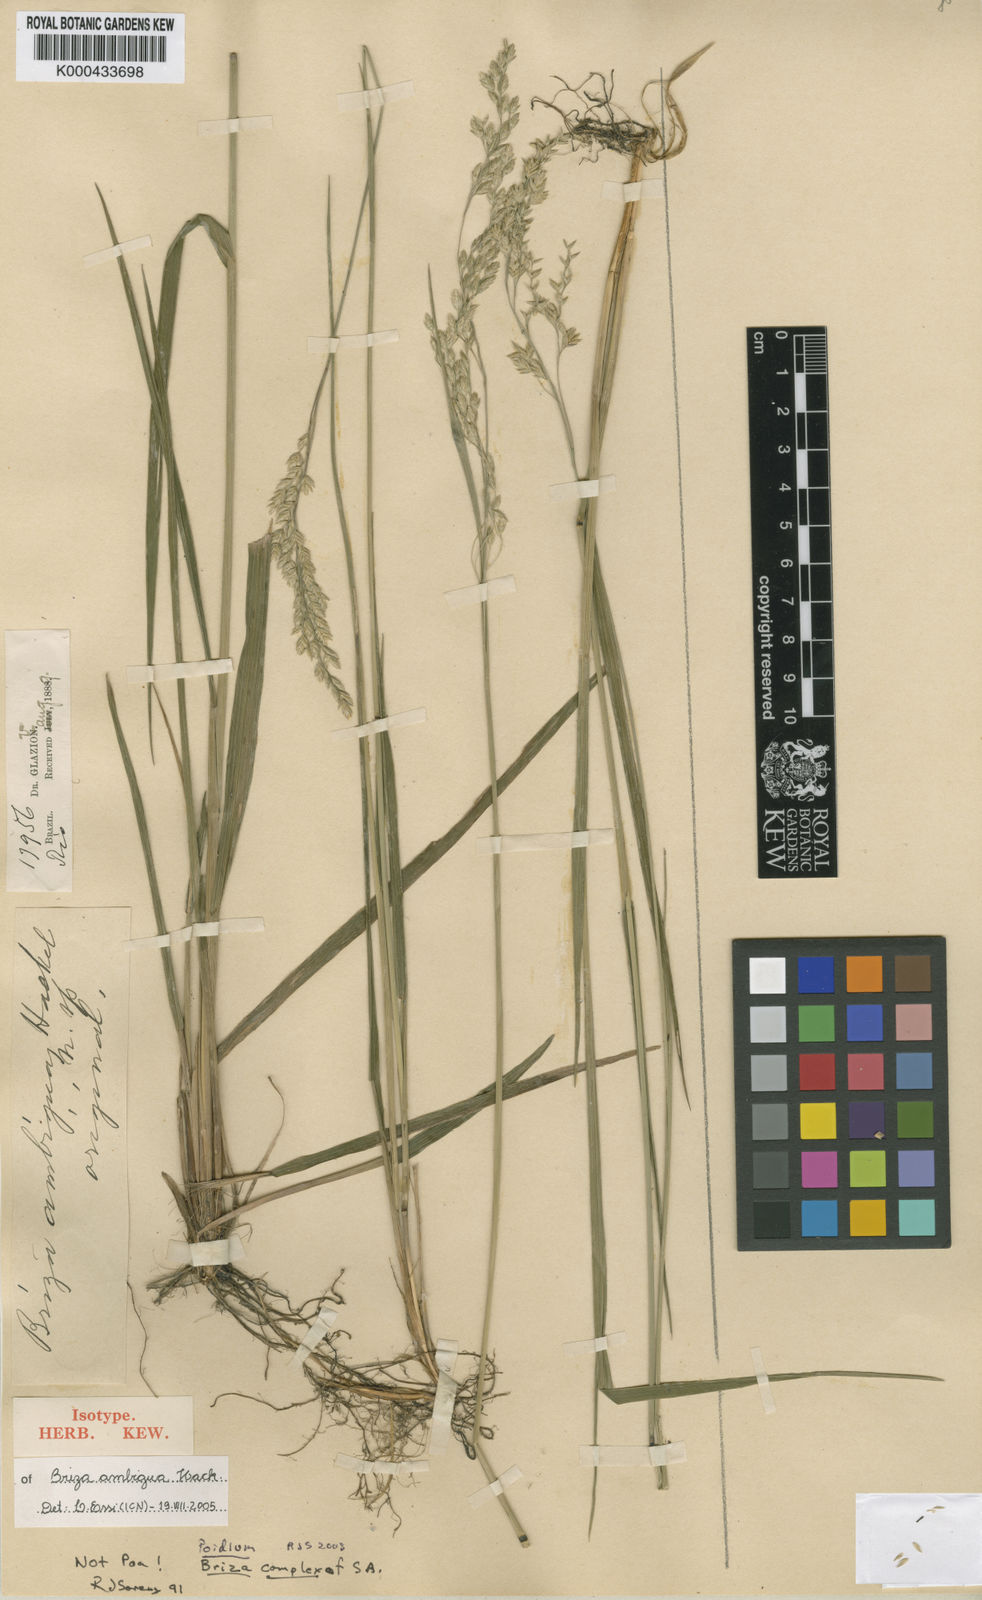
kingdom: Plantae
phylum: Tracheophyta
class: Liliopsida
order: Poales
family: Poaceae
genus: Poidium
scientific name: Poidium ambiguum
